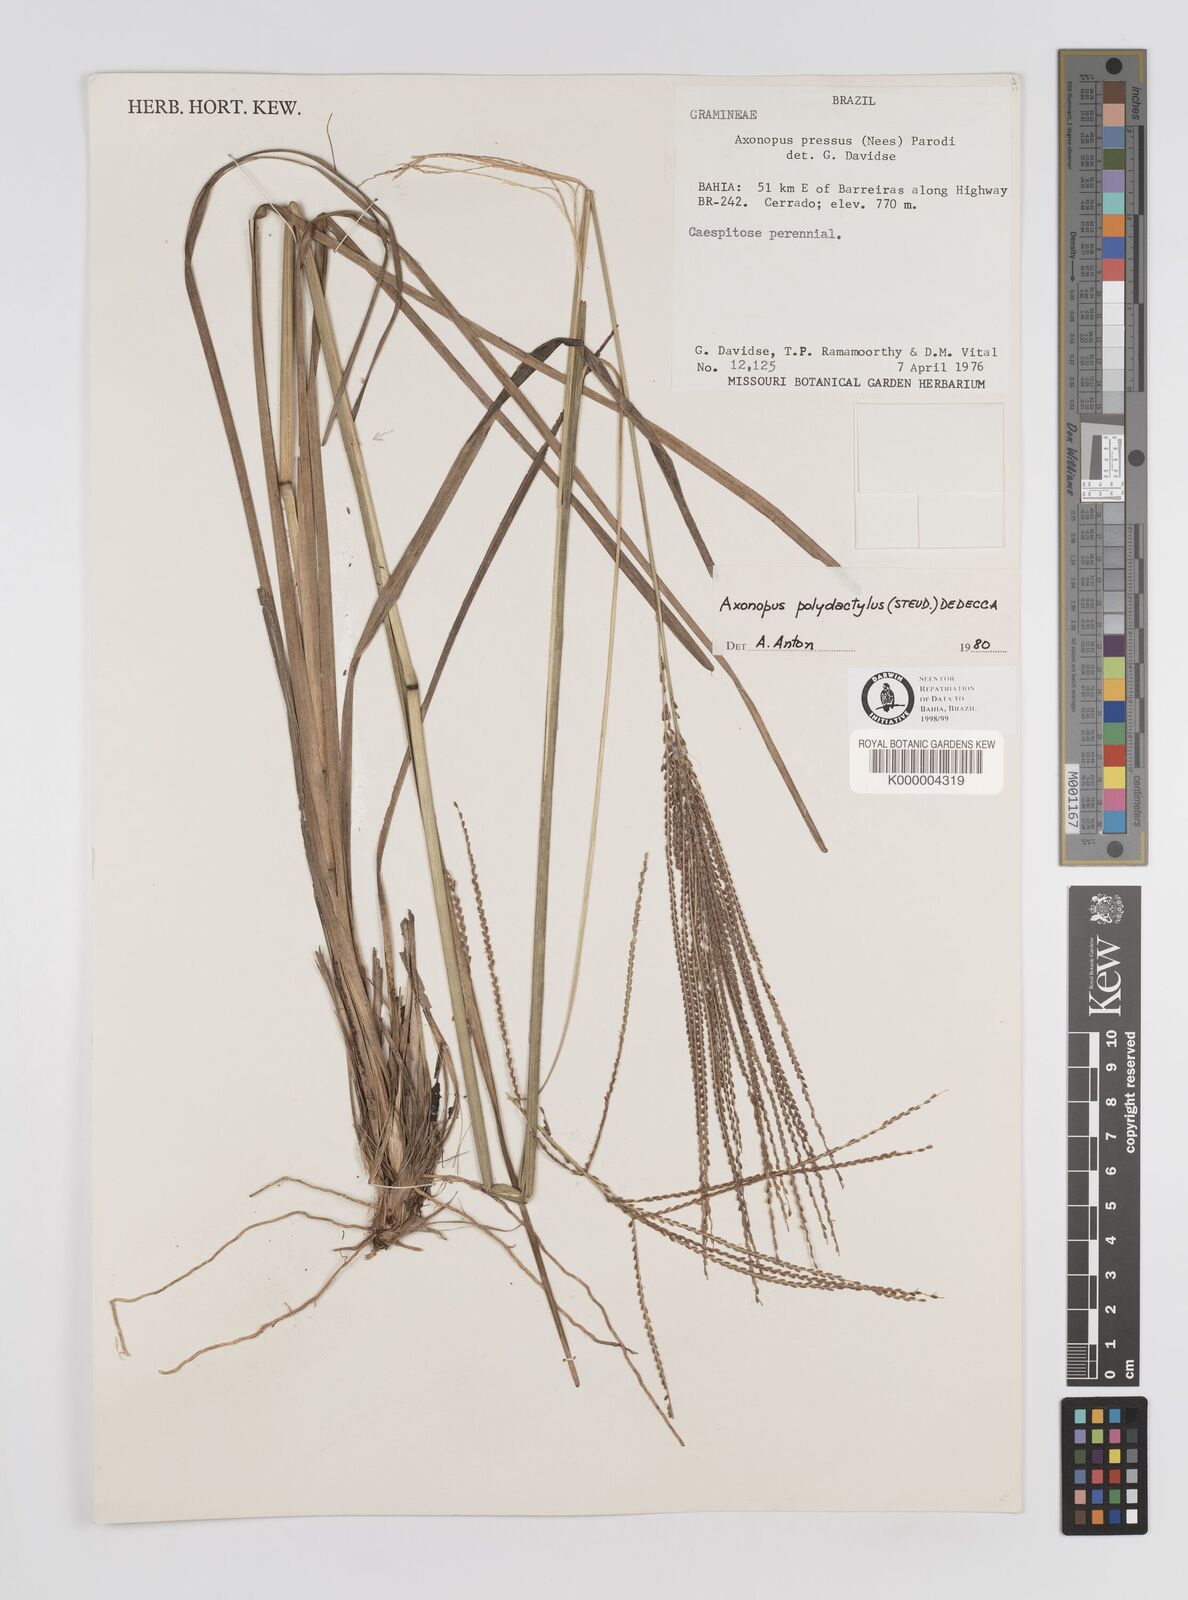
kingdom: Plantae
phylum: Tracheophyta
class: Liliopsida
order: Poales
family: Poaceae
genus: Axonopus
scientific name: Axonopus polydactylus
